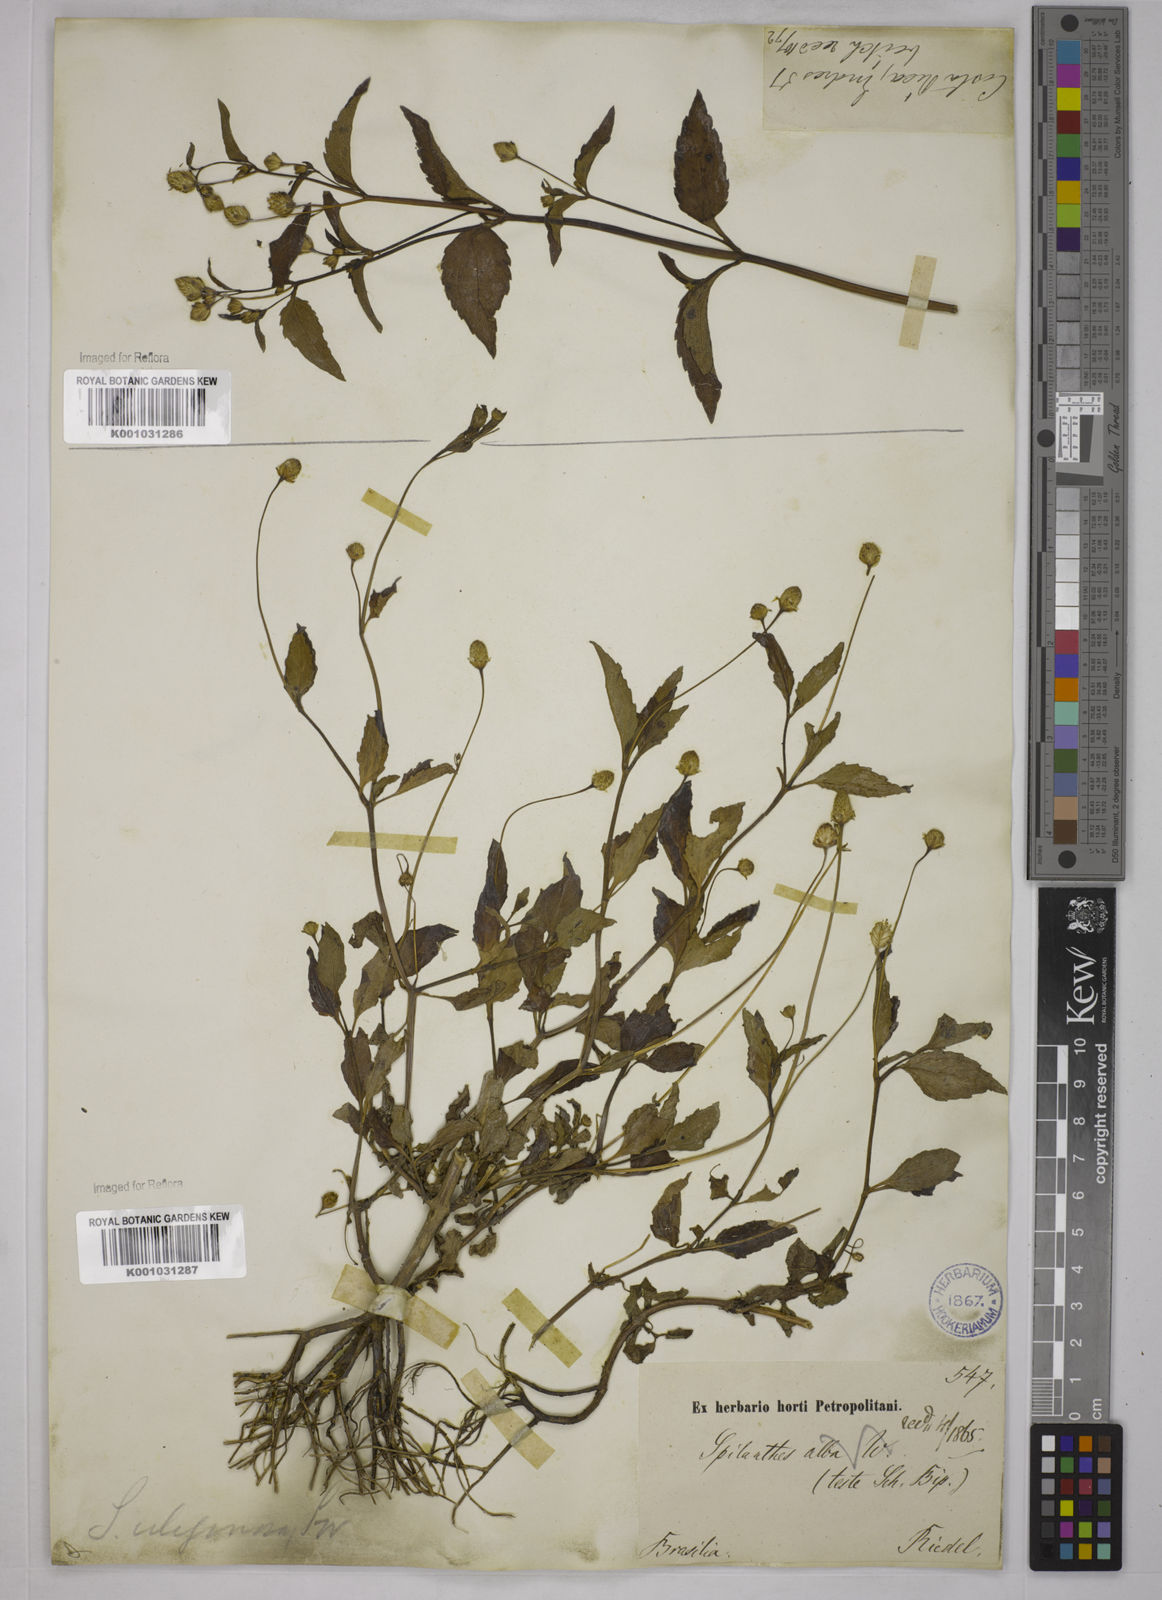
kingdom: Plantae
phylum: Tracheophyta
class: Magnoliopsida
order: Asterales
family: Asteraceae
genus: Acmella
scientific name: Acmella uliginosa
